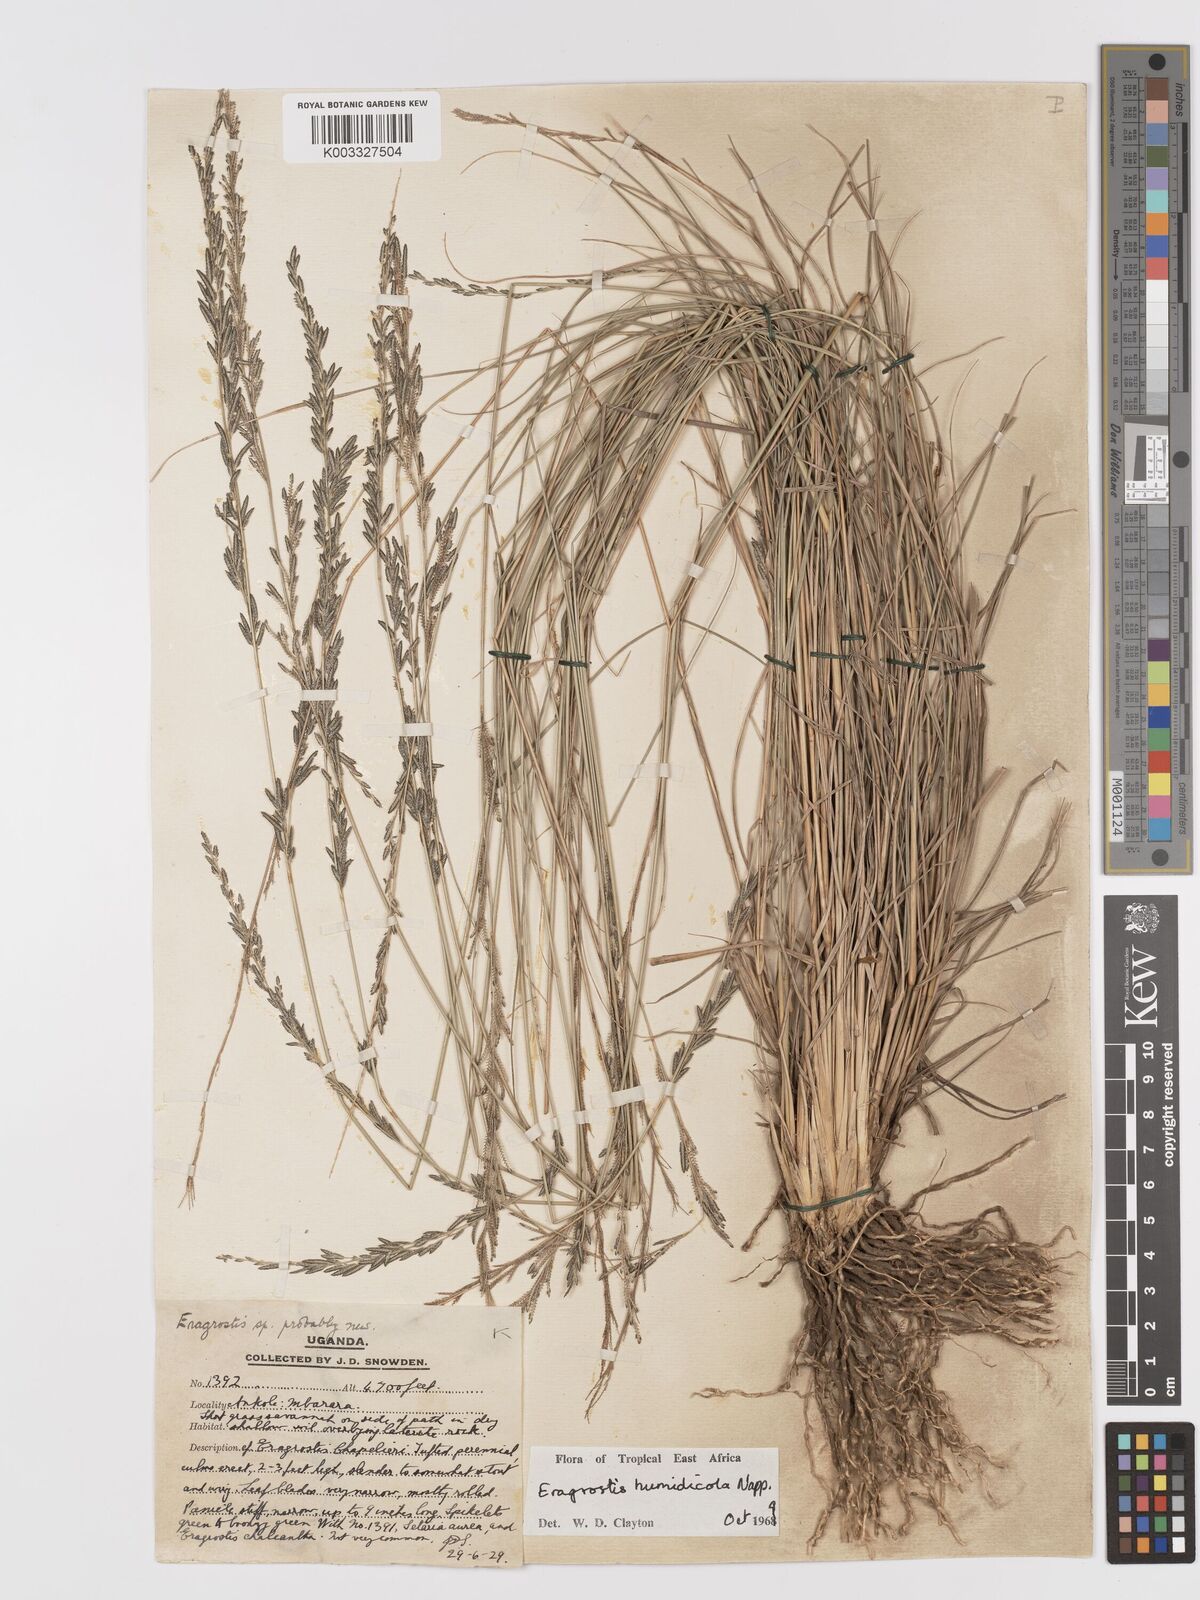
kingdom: Plantae
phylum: Tracheophyta
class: Liliopsida
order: Poales
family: Poaceae
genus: Eragrostis
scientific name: Eragrostis humidicola
